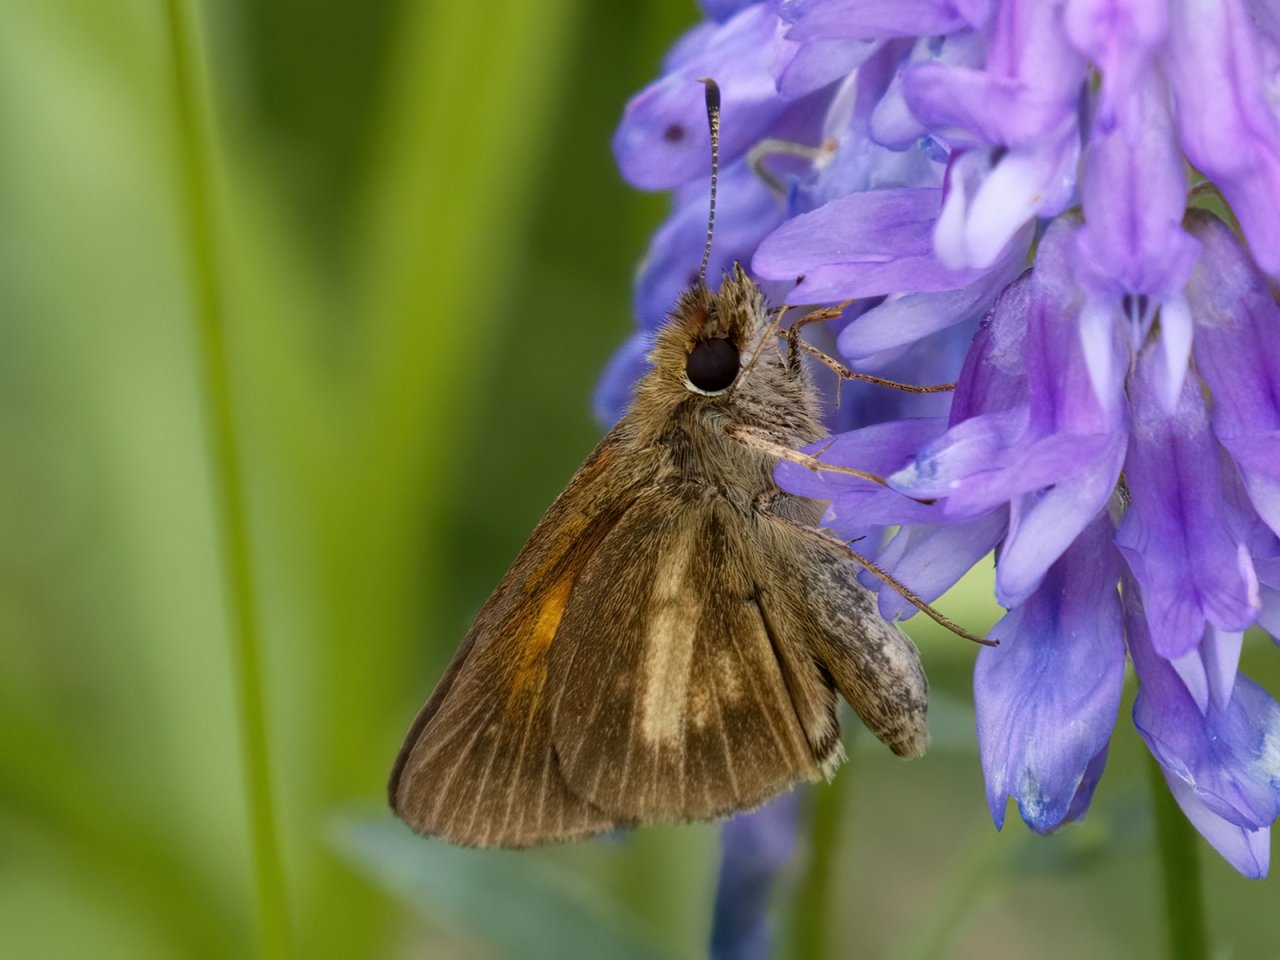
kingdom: Animalia
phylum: Arthropoda
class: Insecta
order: Lepidoptera
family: Hesperiidae
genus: Poanes
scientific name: Poanes viator
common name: Broad-winged Skipper
